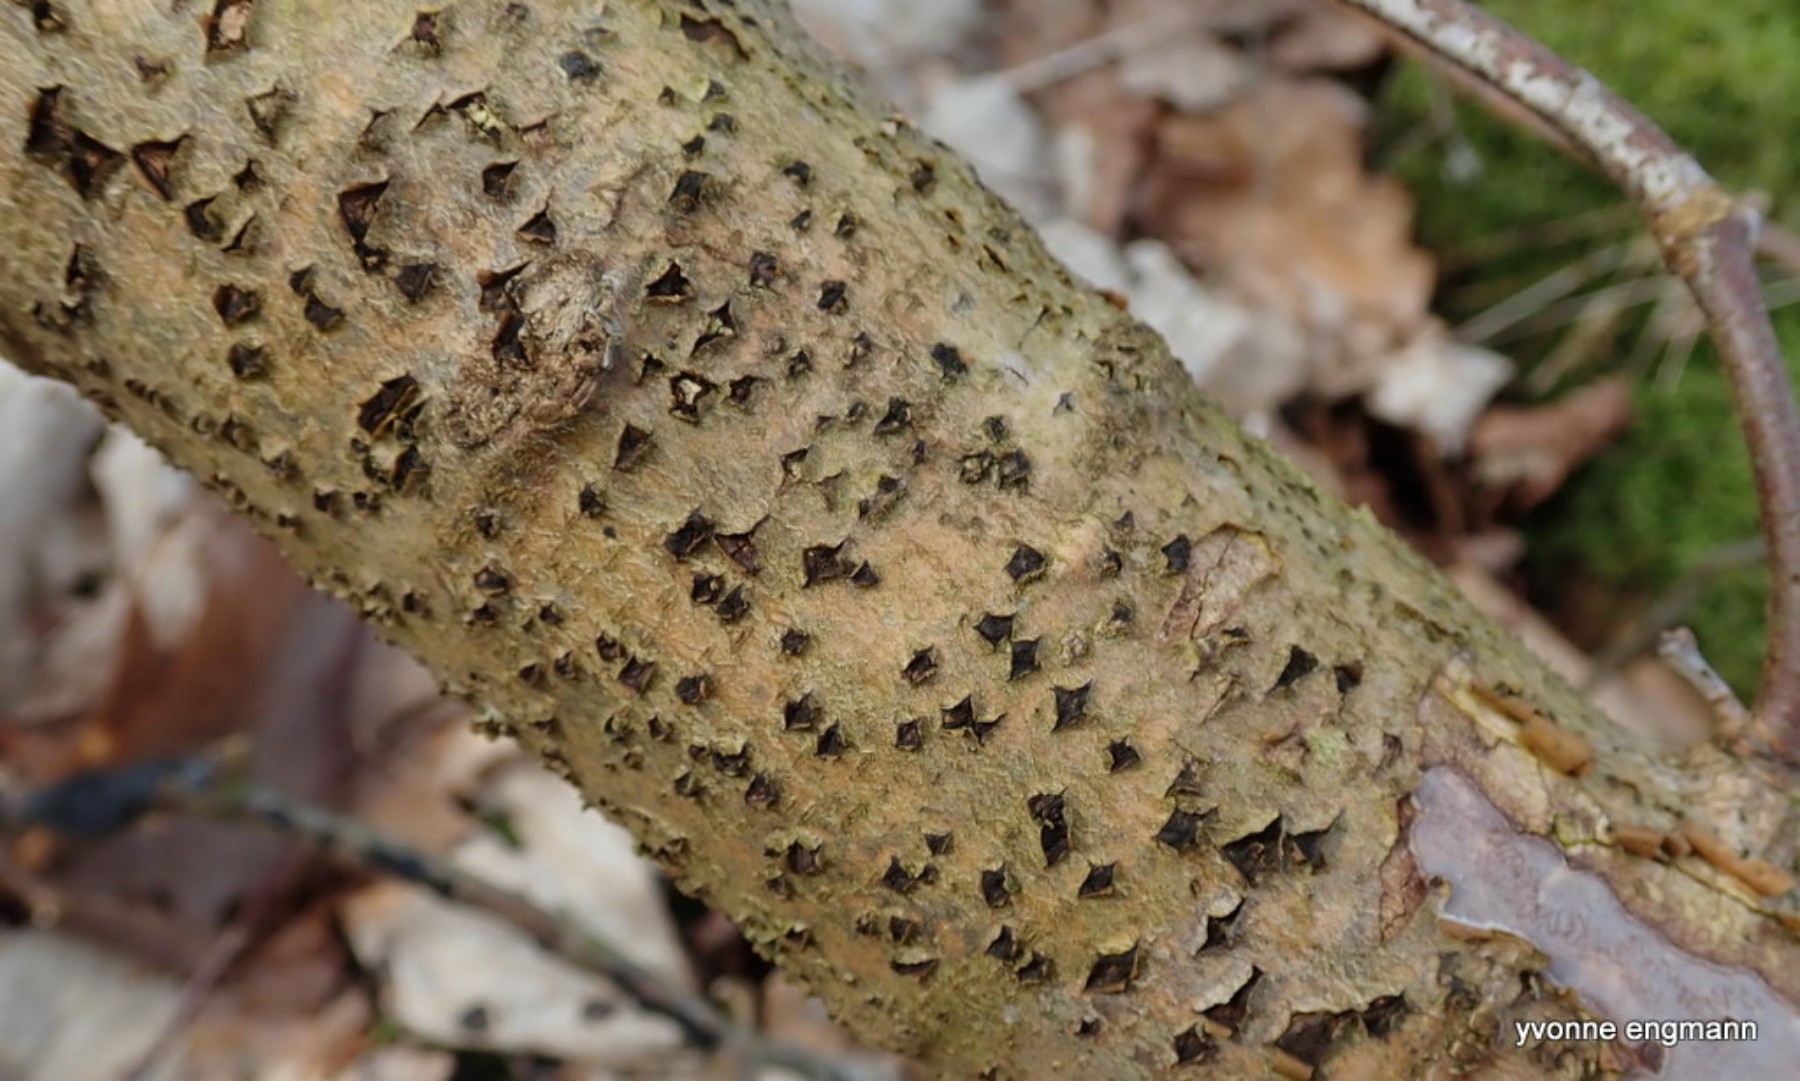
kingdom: Fungi
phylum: Ascomycota
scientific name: Ascomycota
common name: sæksvampe
